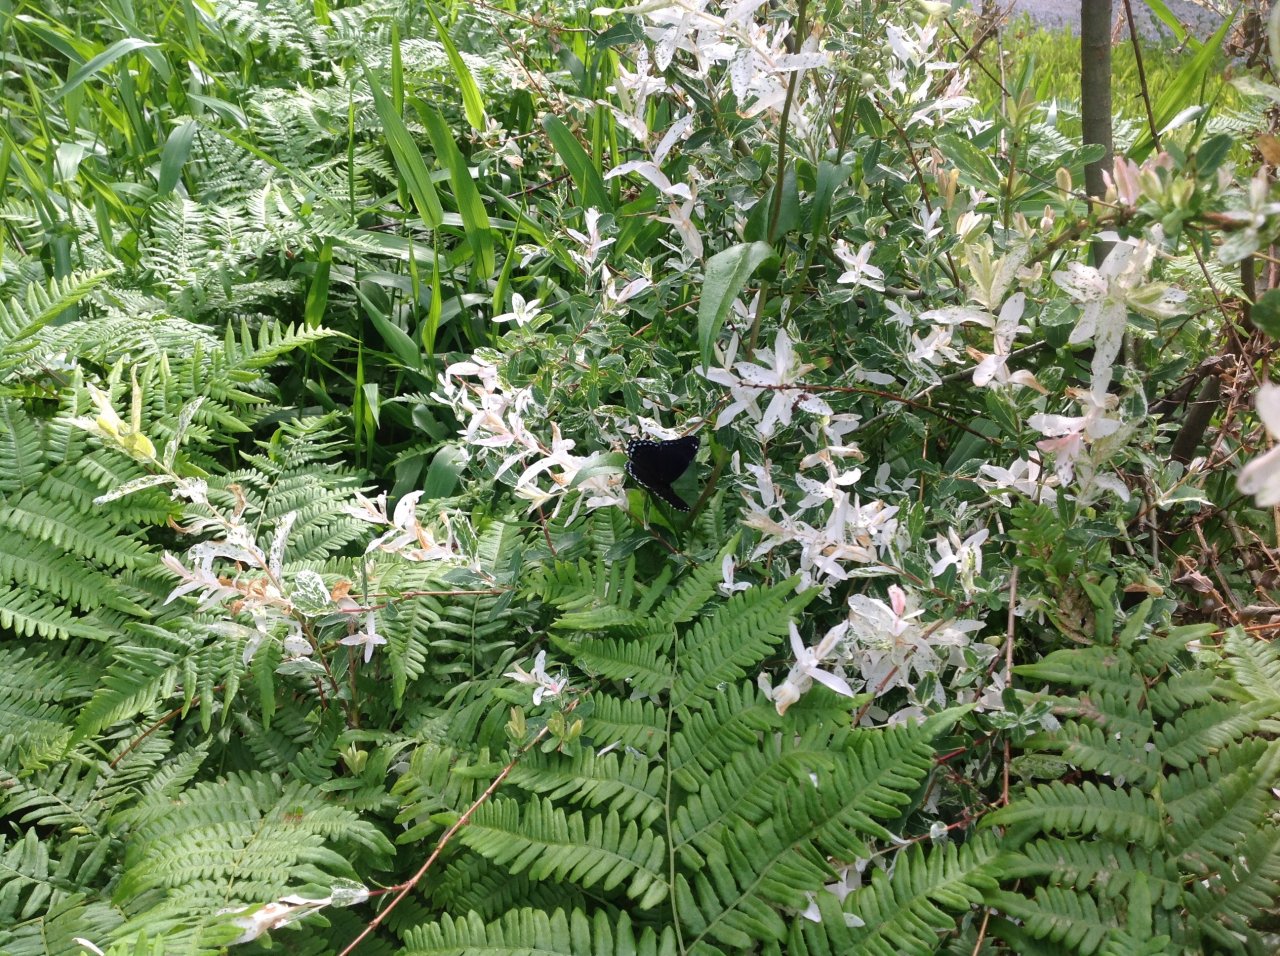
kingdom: Animalia
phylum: Arthropoda
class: Insecta
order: Lepidoptera
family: Nymphalidae
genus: Limenitis
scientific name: Limenitis astyanax
